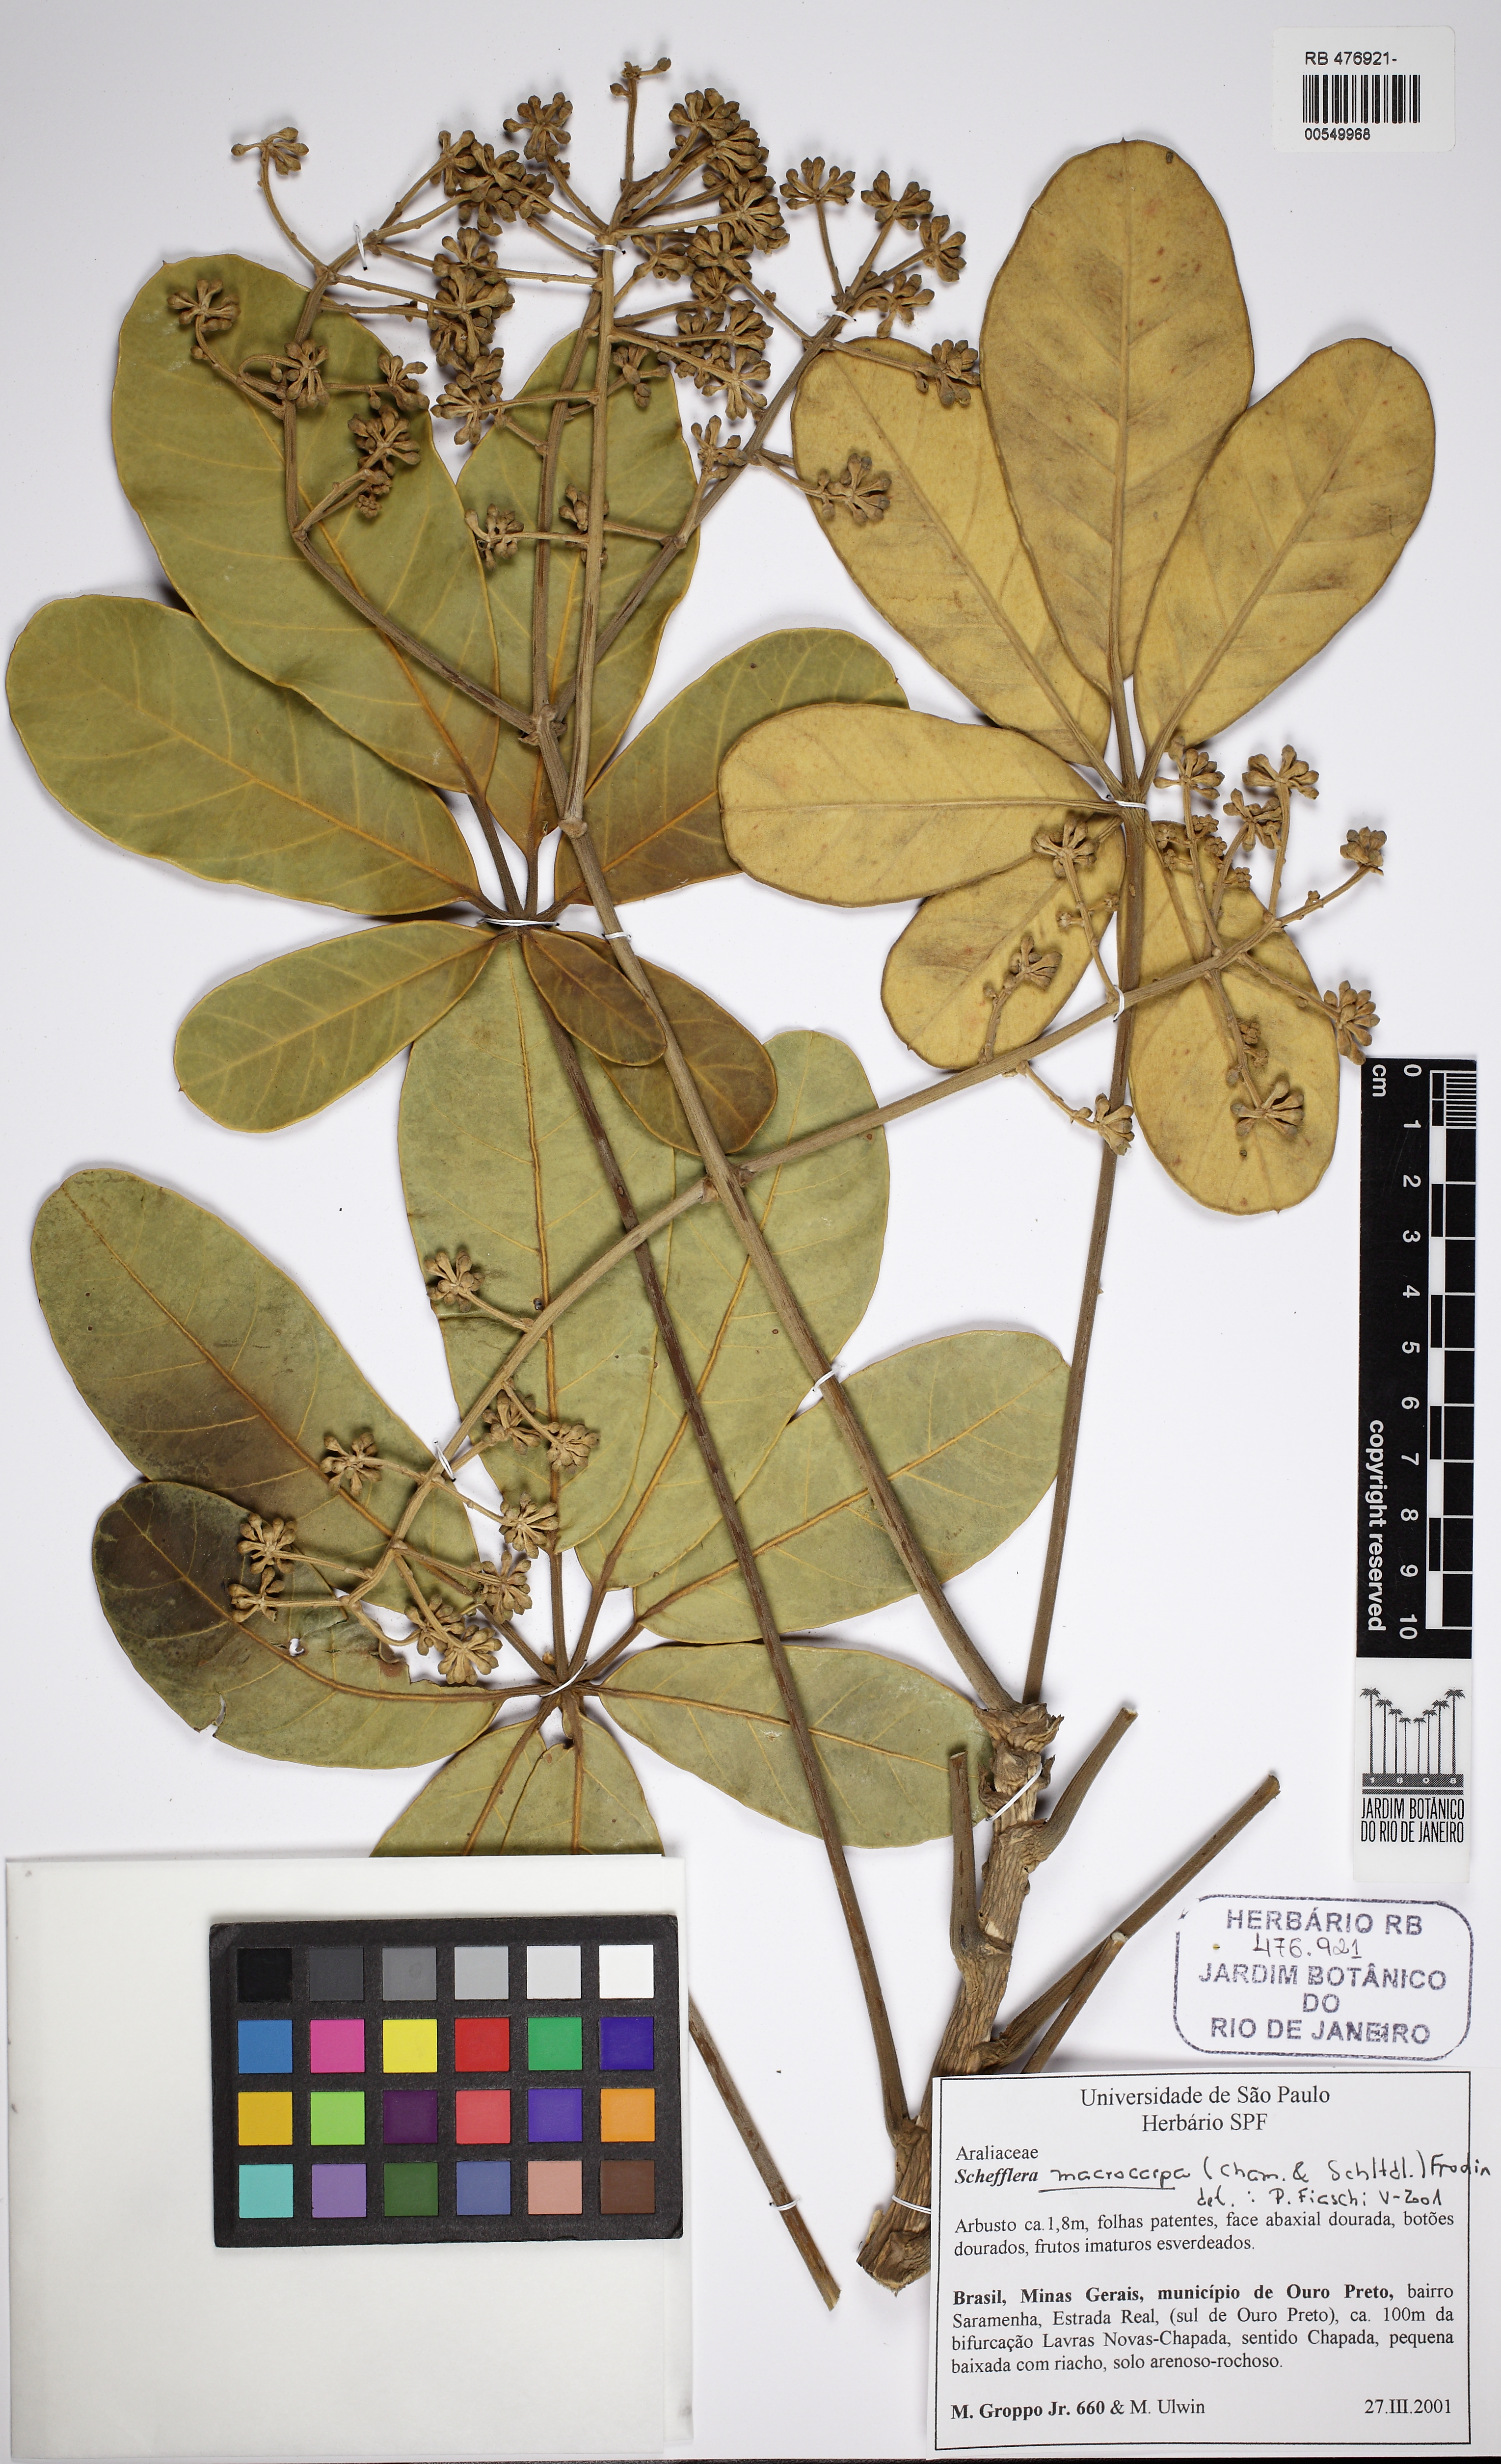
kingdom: Plantae
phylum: Tracheophyta
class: Magnoliopsida
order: Apiales
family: Araliaceae
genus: Didymopanax
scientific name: Didymopanax macrocarpus
